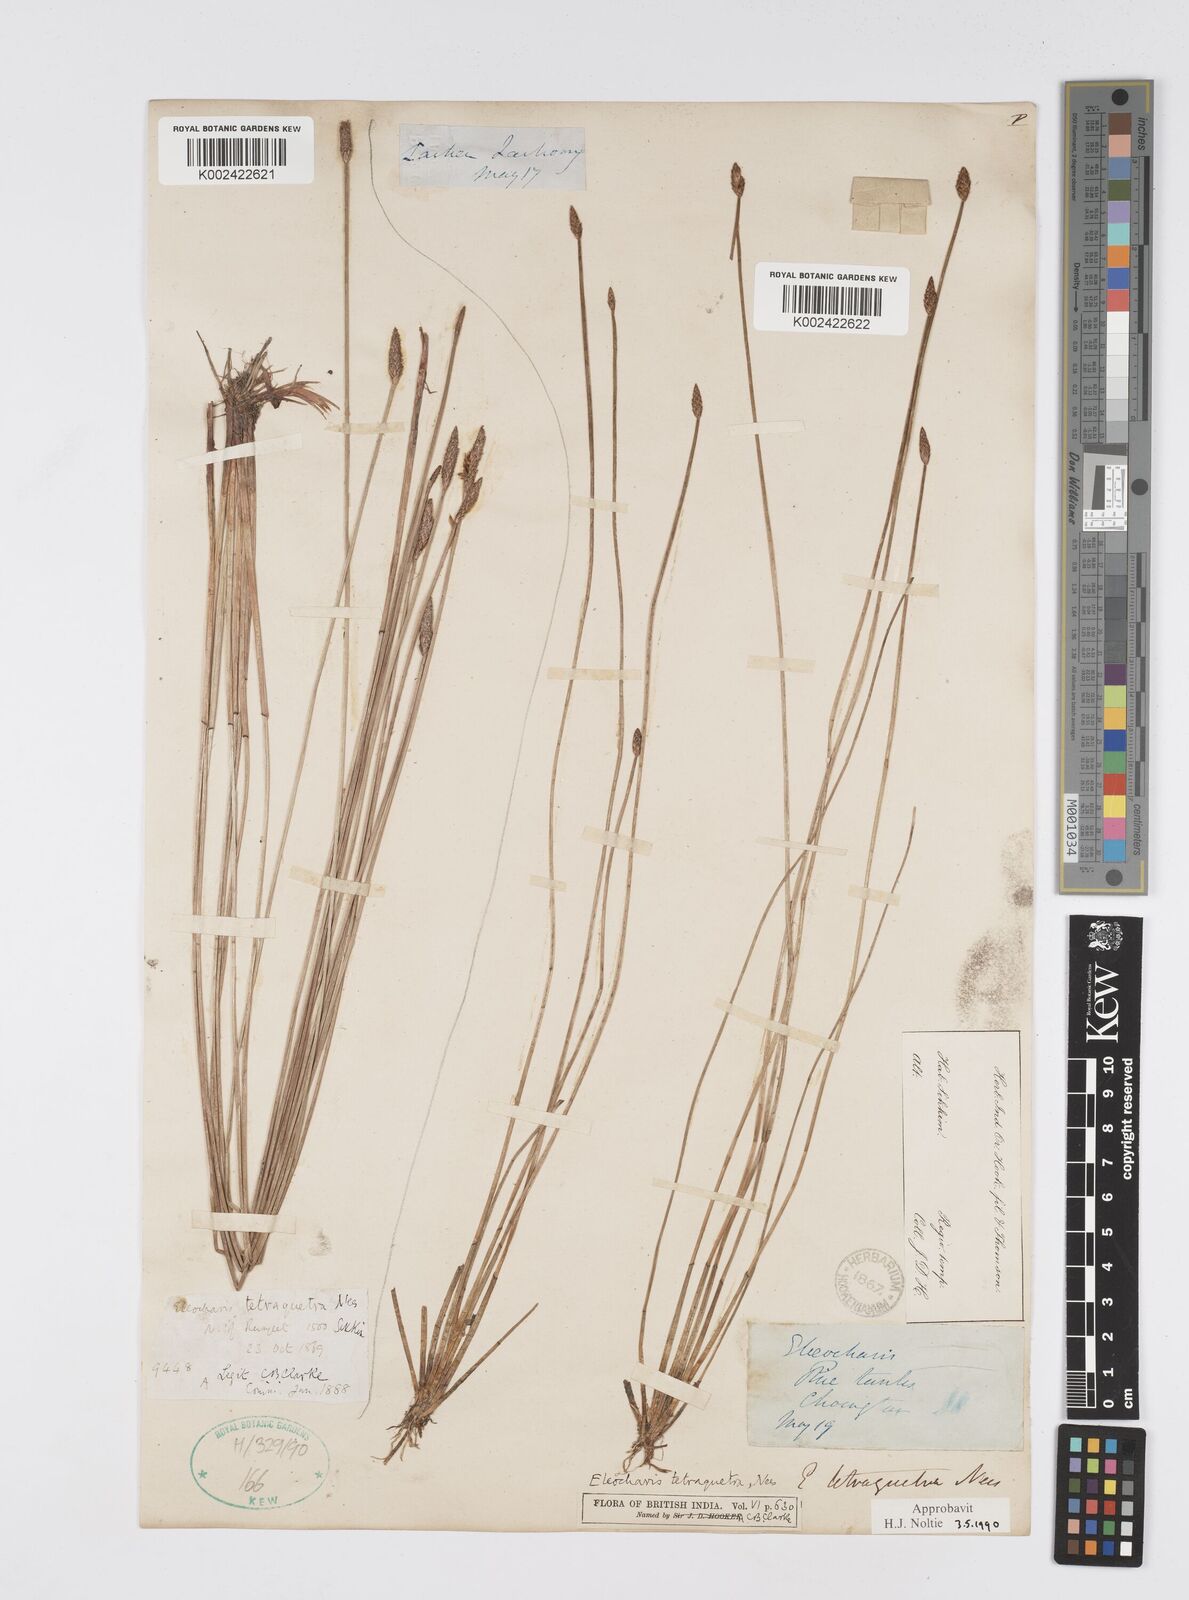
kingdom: Plantae
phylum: Tracheophyta
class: Liliopsida
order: Poales
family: Cyperaceae
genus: Eleocharis
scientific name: Eleocharis tetraquetra
